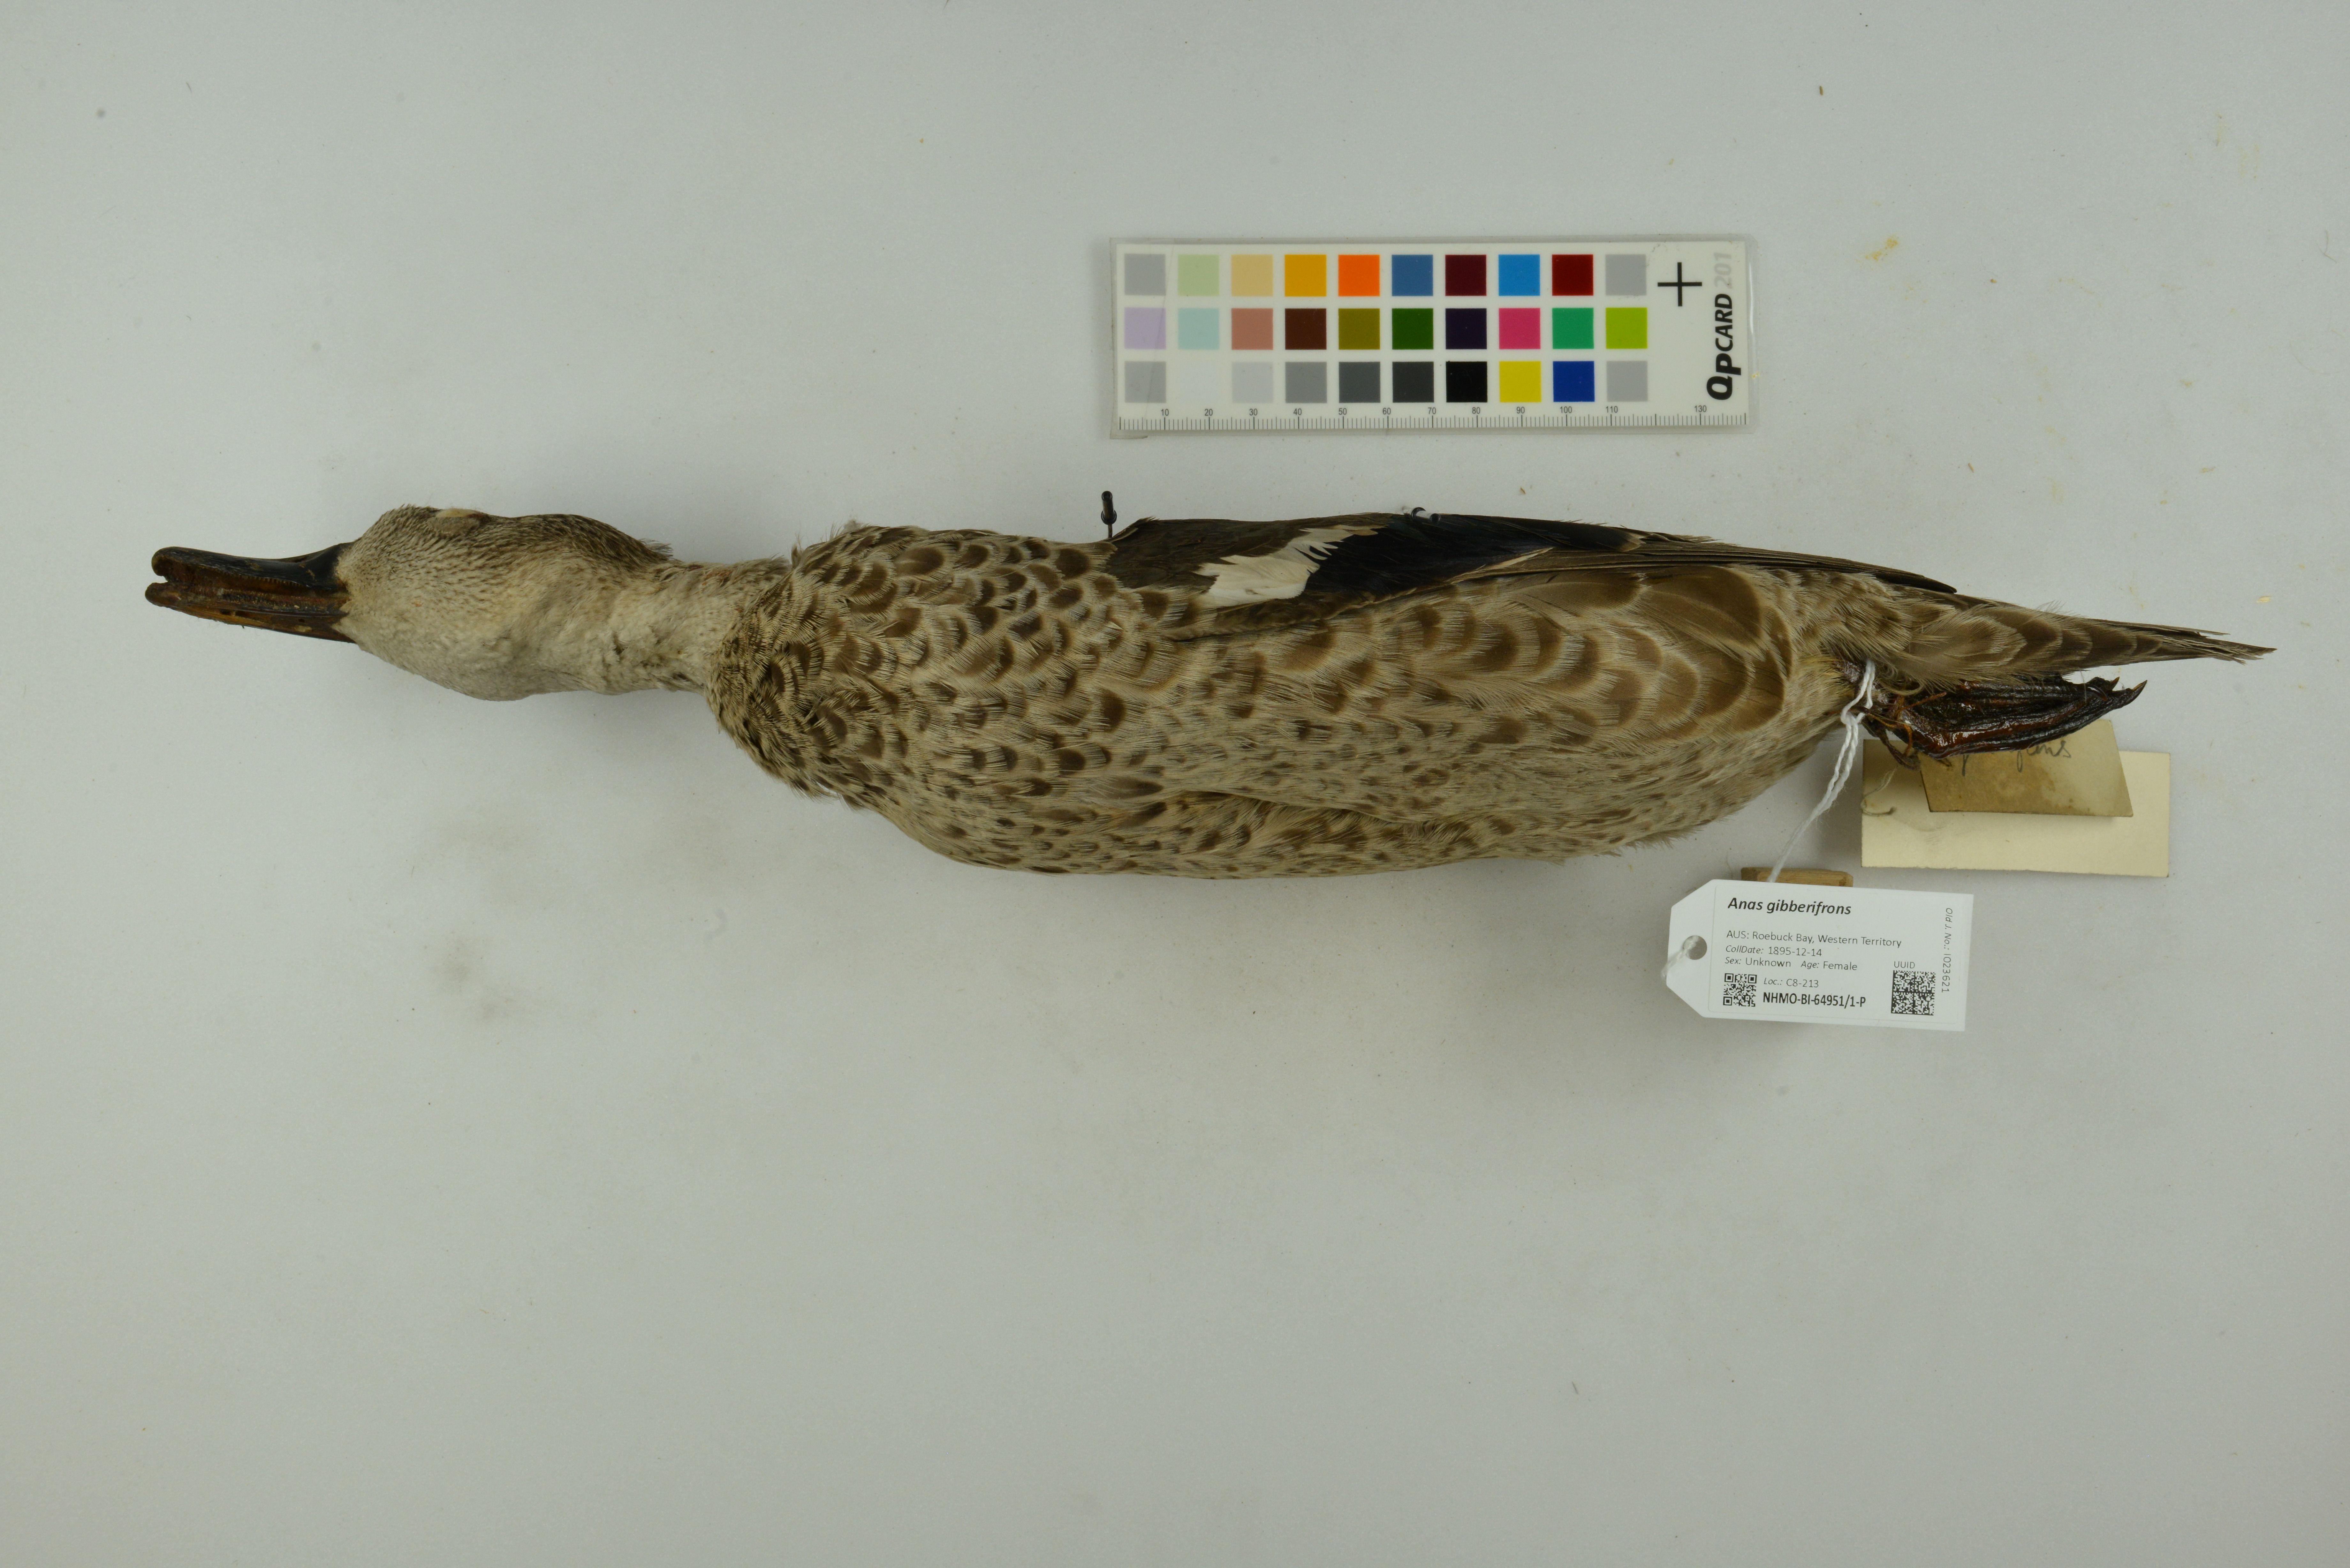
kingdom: Animalia
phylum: Chordata
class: Aves
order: Anseriformes
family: Anatidae
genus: Anas
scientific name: Anas gibberifrons
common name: Sunda teal
